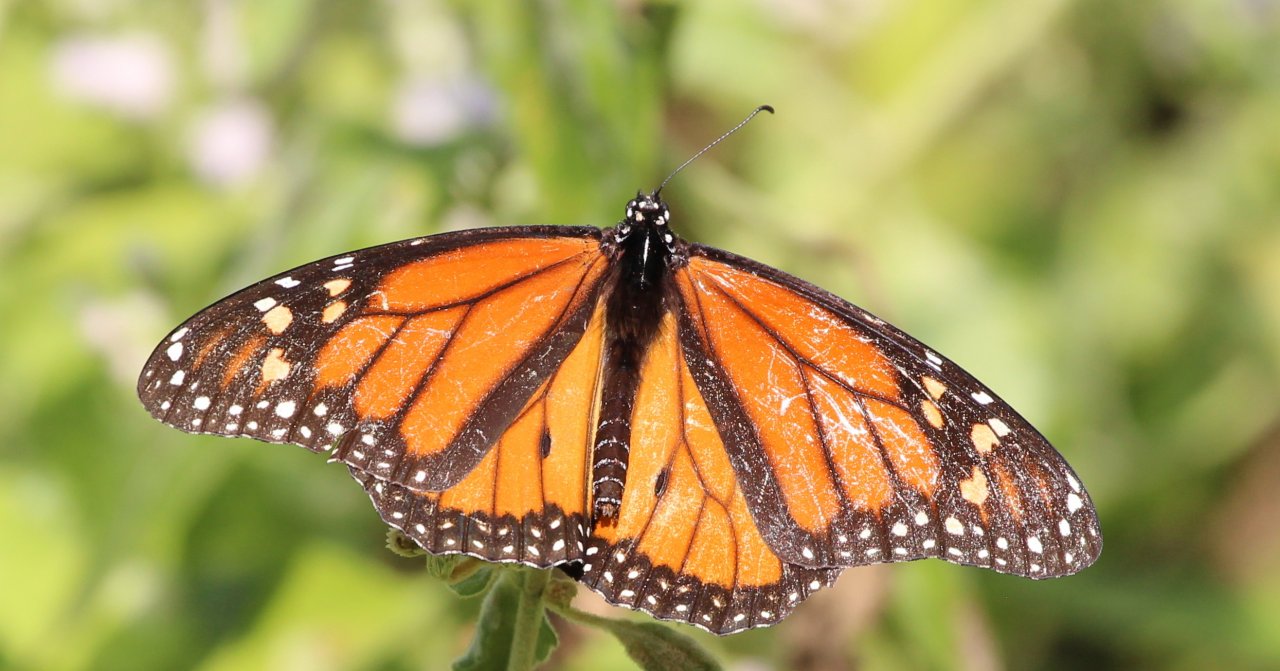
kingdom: Animalia
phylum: Arthropoda
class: Insecta
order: Lepidoptera
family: Nymphalidae
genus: Danaus
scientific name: Danaus plexippus
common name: Monarch
